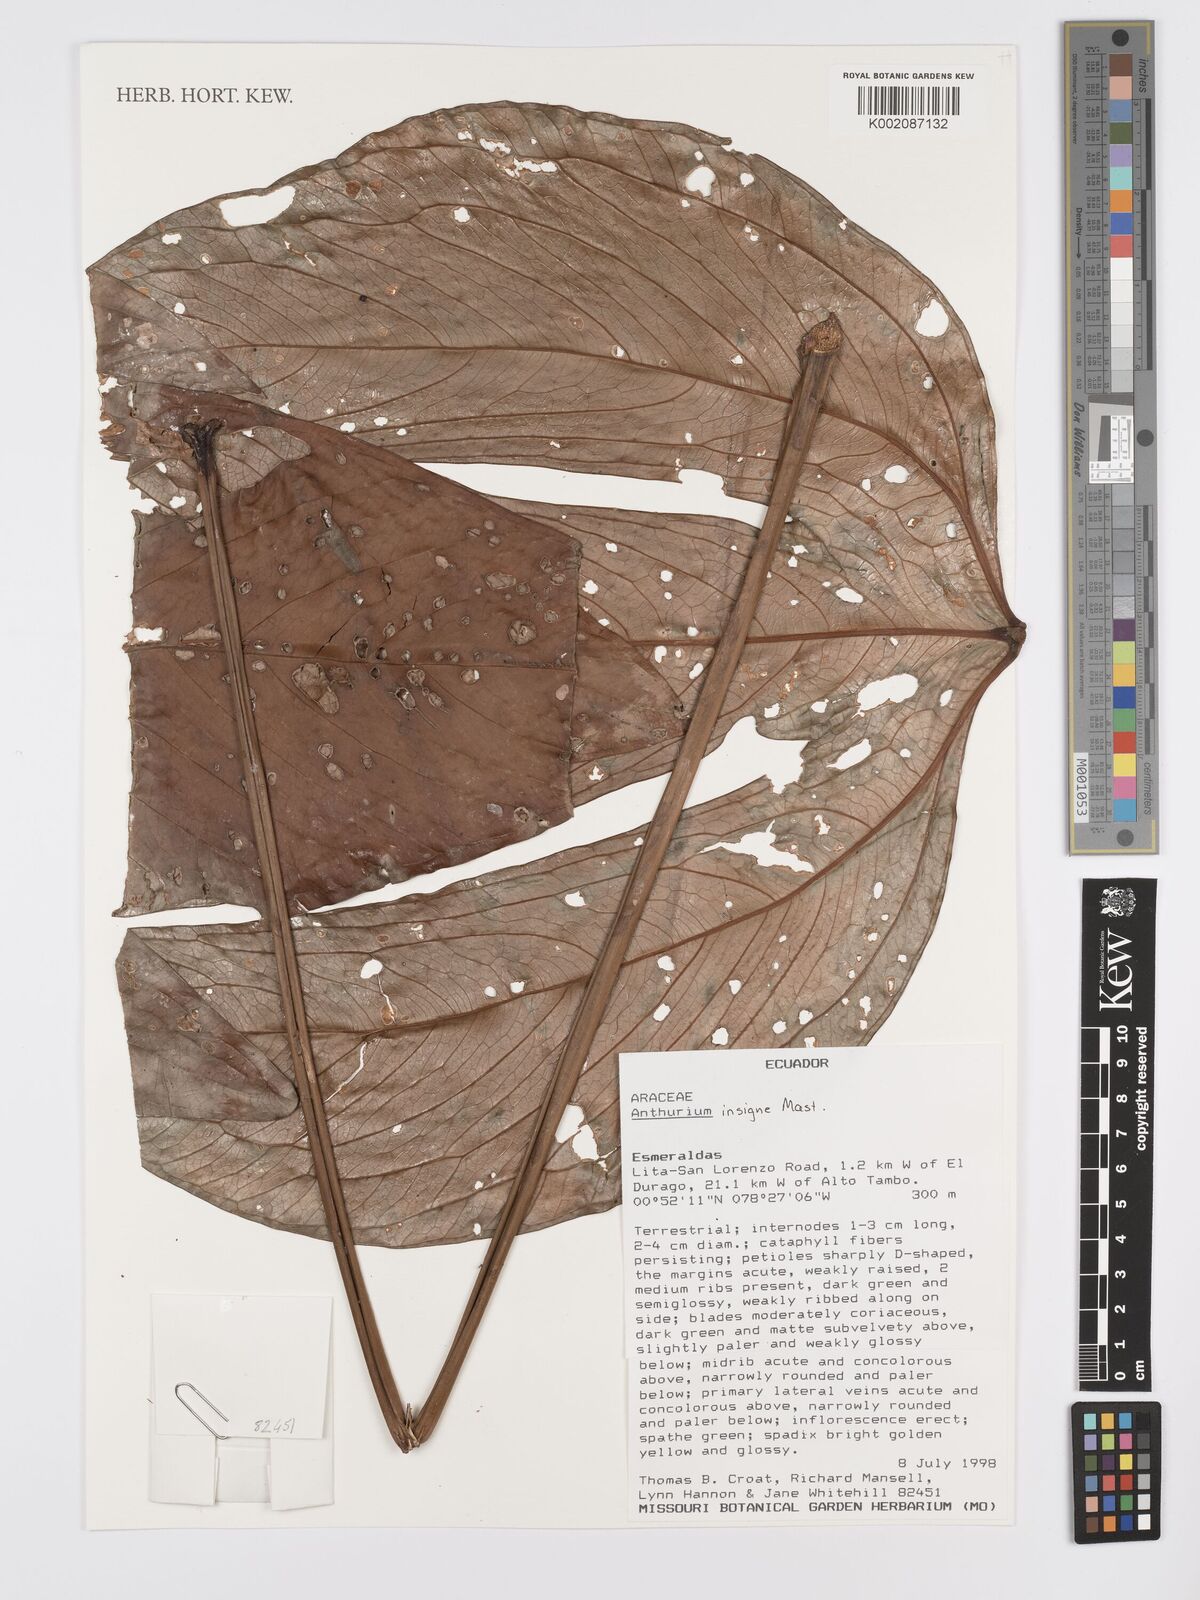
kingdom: Plantae
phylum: Tracheophyta
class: Liliopsida
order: Alismatales
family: Araceae
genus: Anthurium
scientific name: Anthurium trilobum
